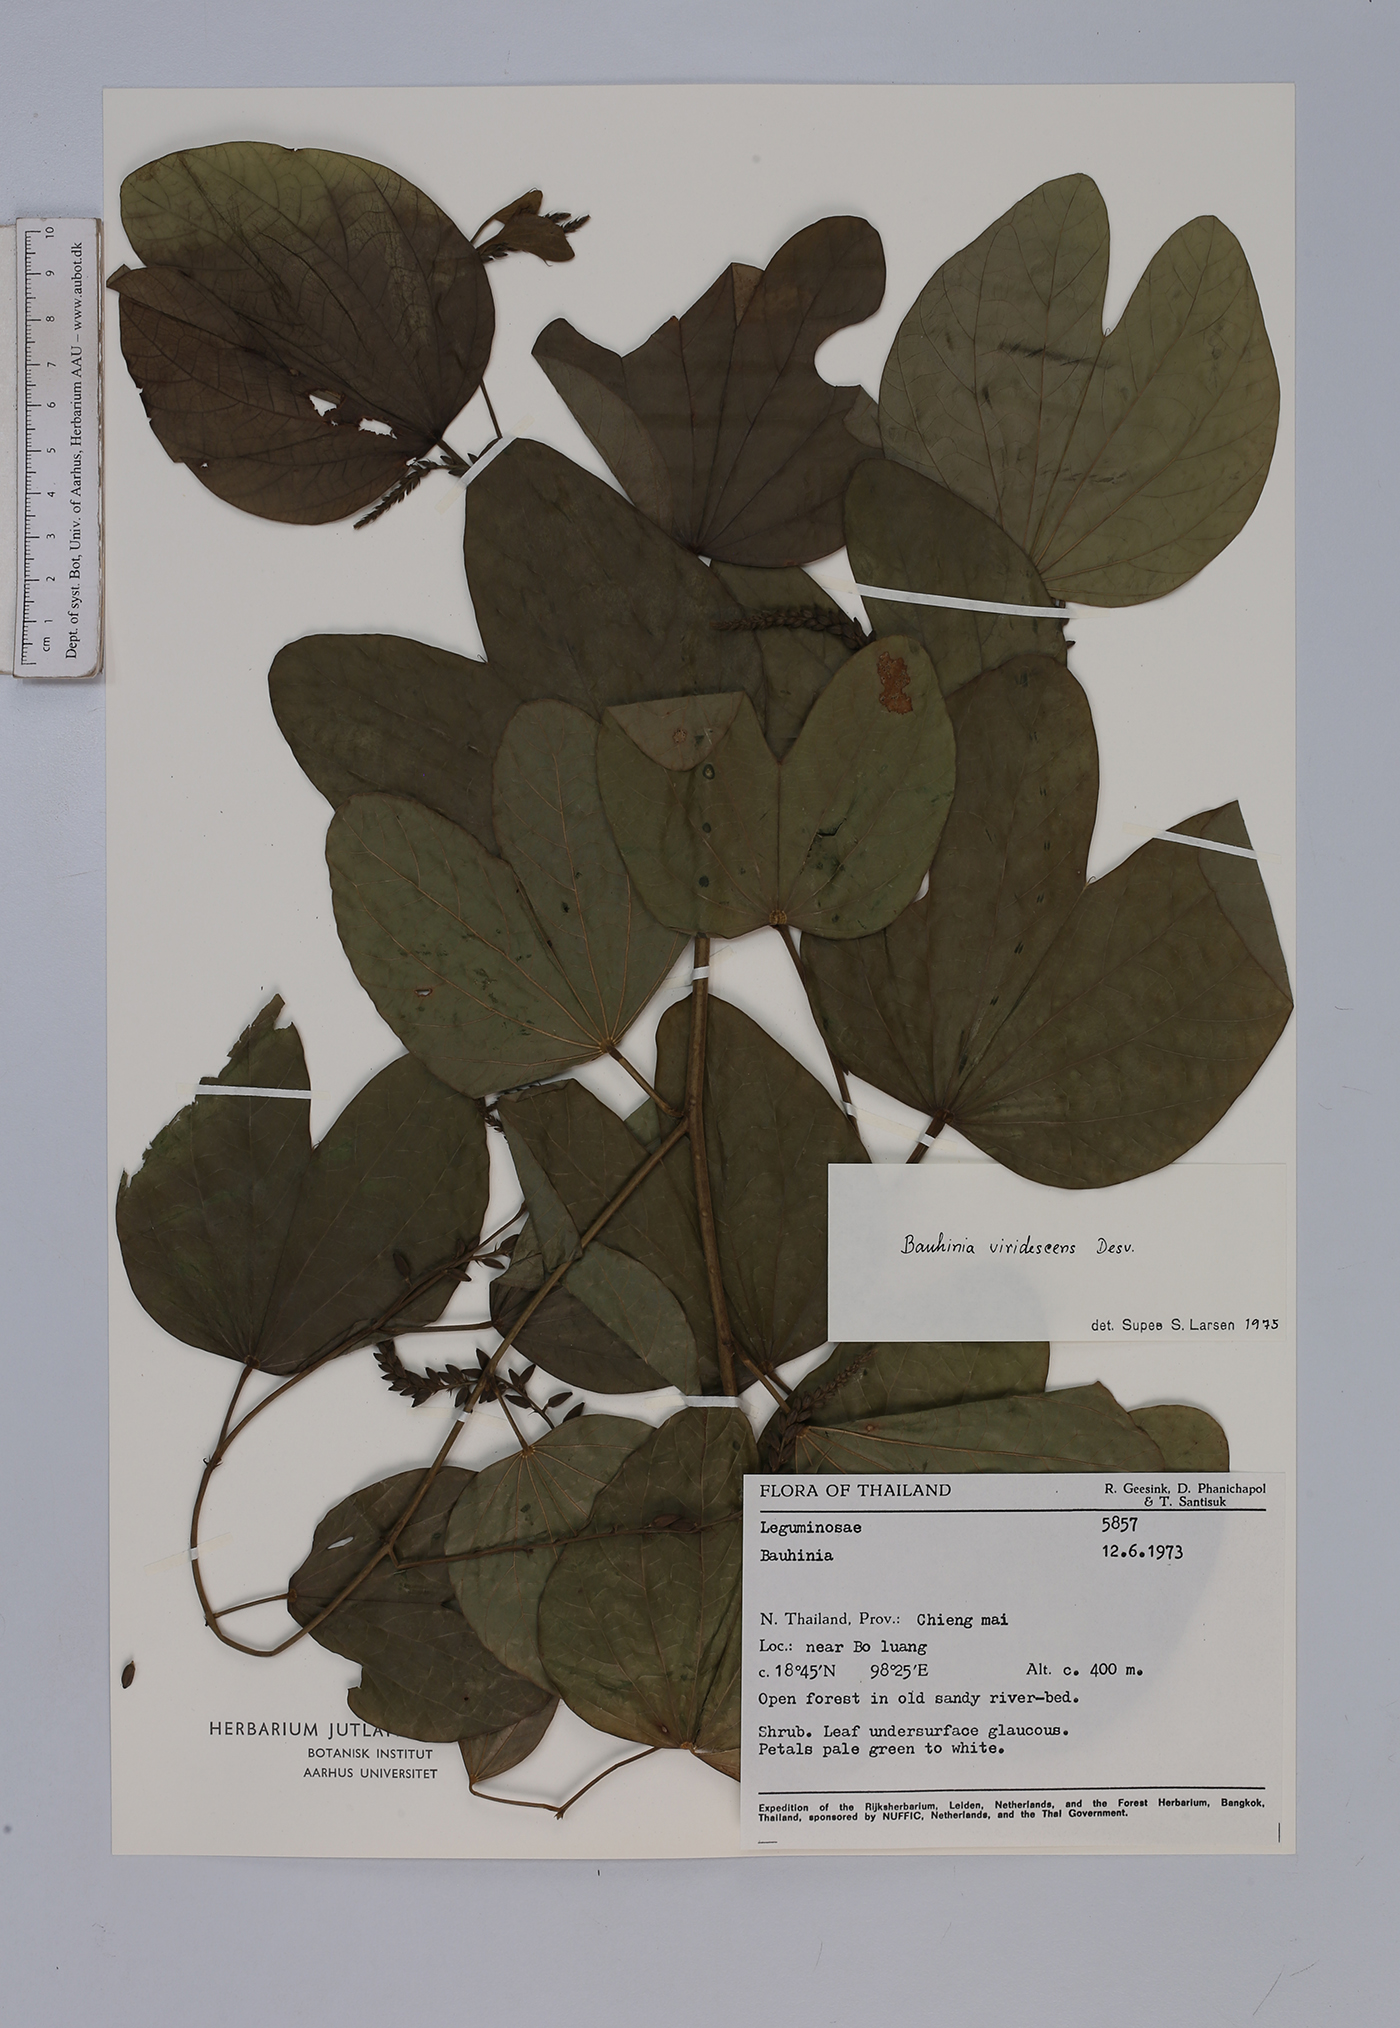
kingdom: Plantae
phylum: Tracheophyta
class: Magnoliopsida
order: Fabales
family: Fabaceae
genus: Bauhinia
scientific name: Bauhinia viridescens
